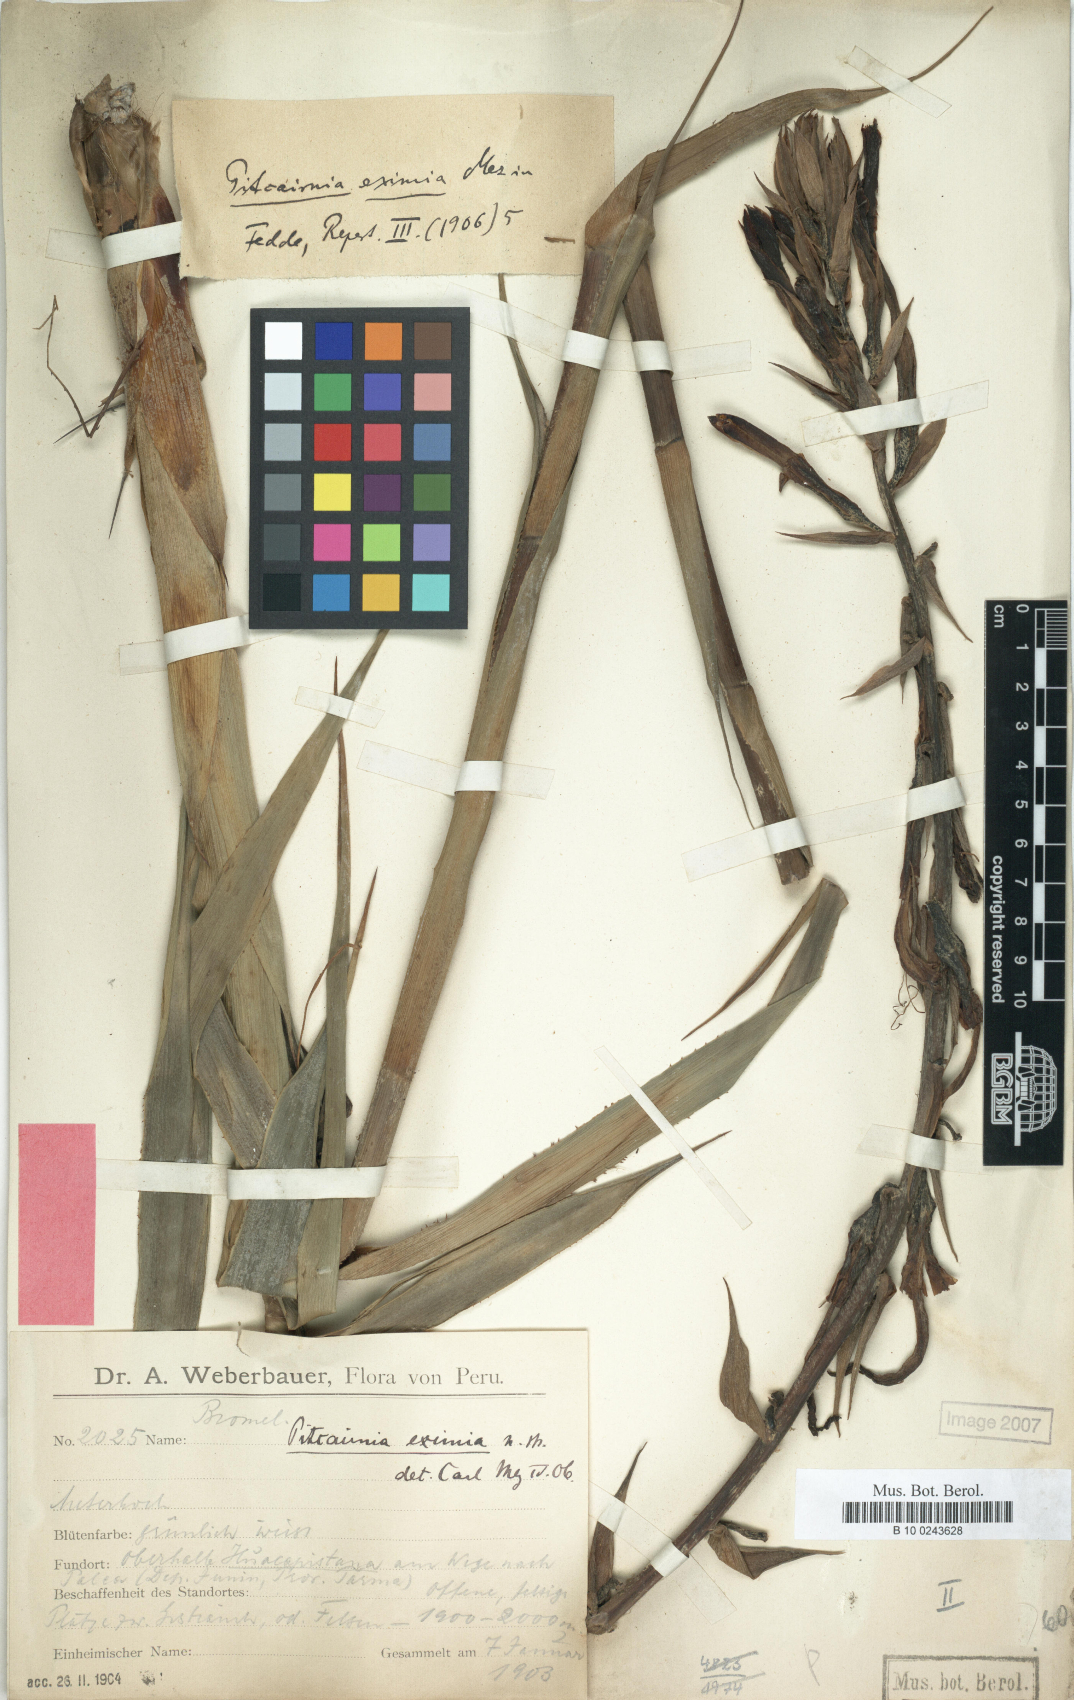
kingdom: Plantae
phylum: Tracheophyta
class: Liliopsida
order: Poales
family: Bromeliaceae
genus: Pitcairnia
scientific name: Pitcairnia eximia
